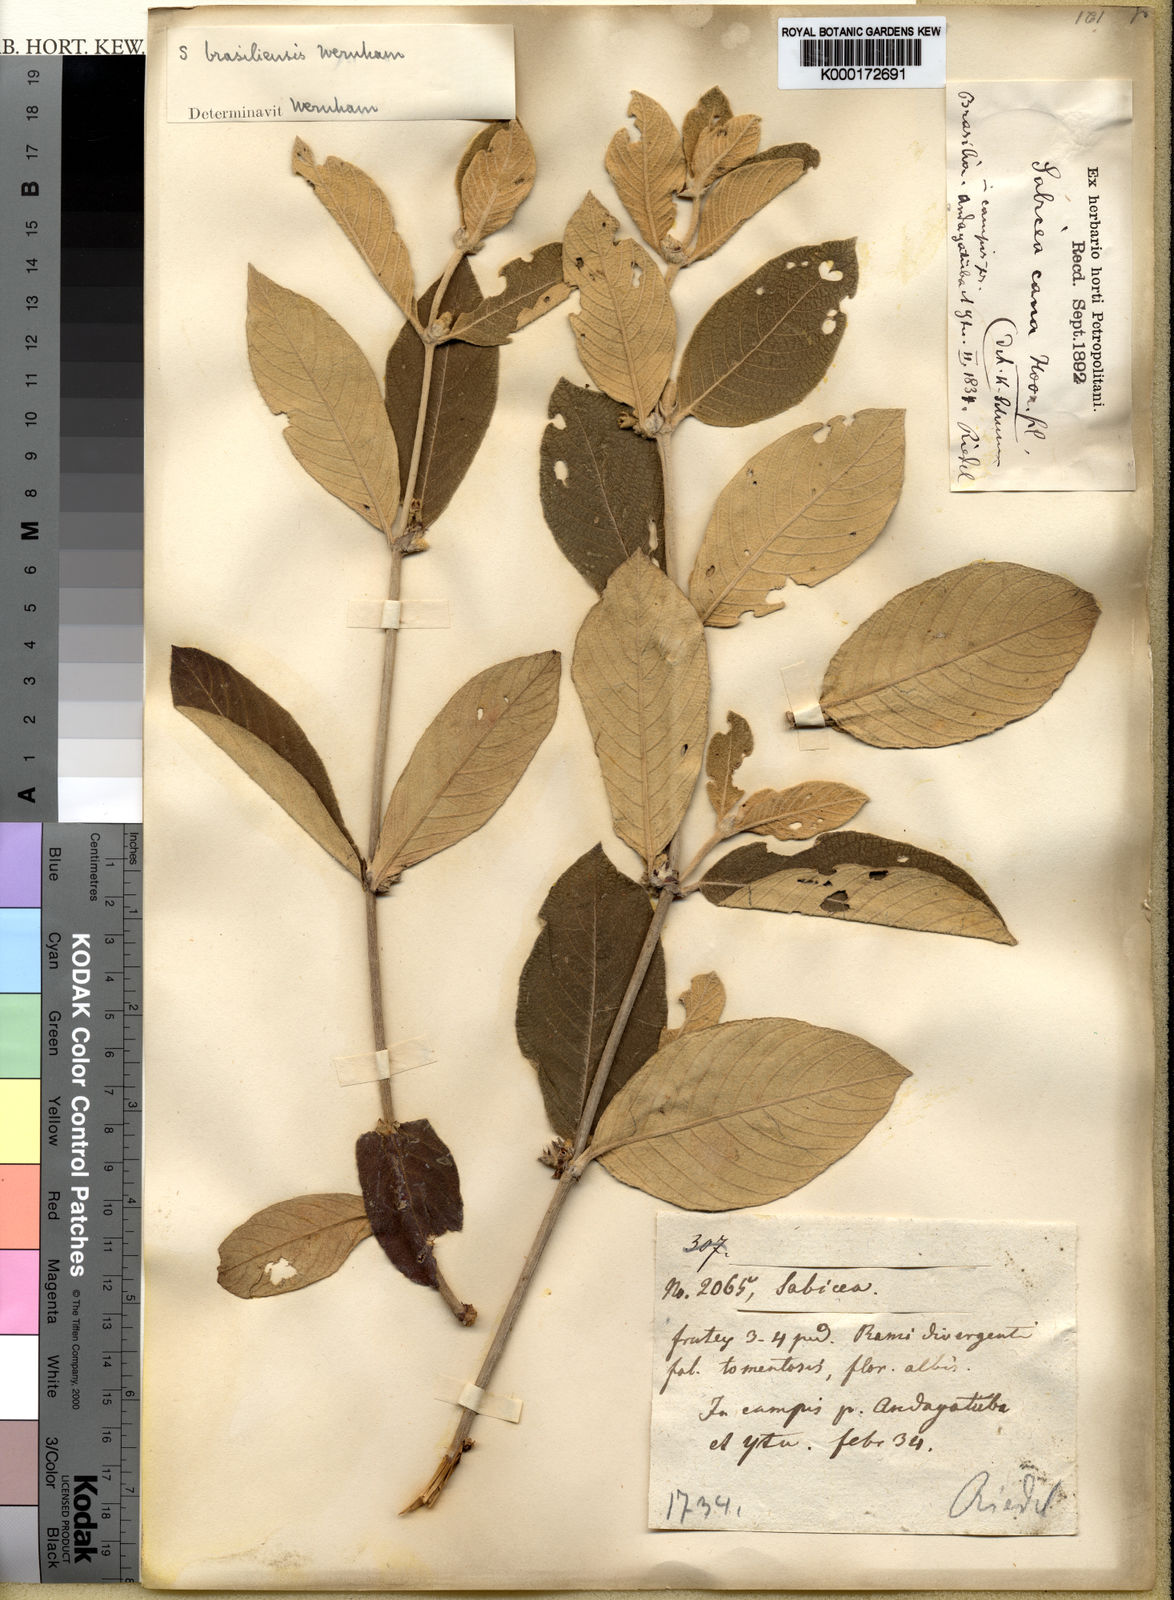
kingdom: Plantae
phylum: Tracheophyta
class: Magnoliopsida
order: Gentianales
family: Rubiaceae
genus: Sabicea
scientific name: Sabicea brasiliensis
